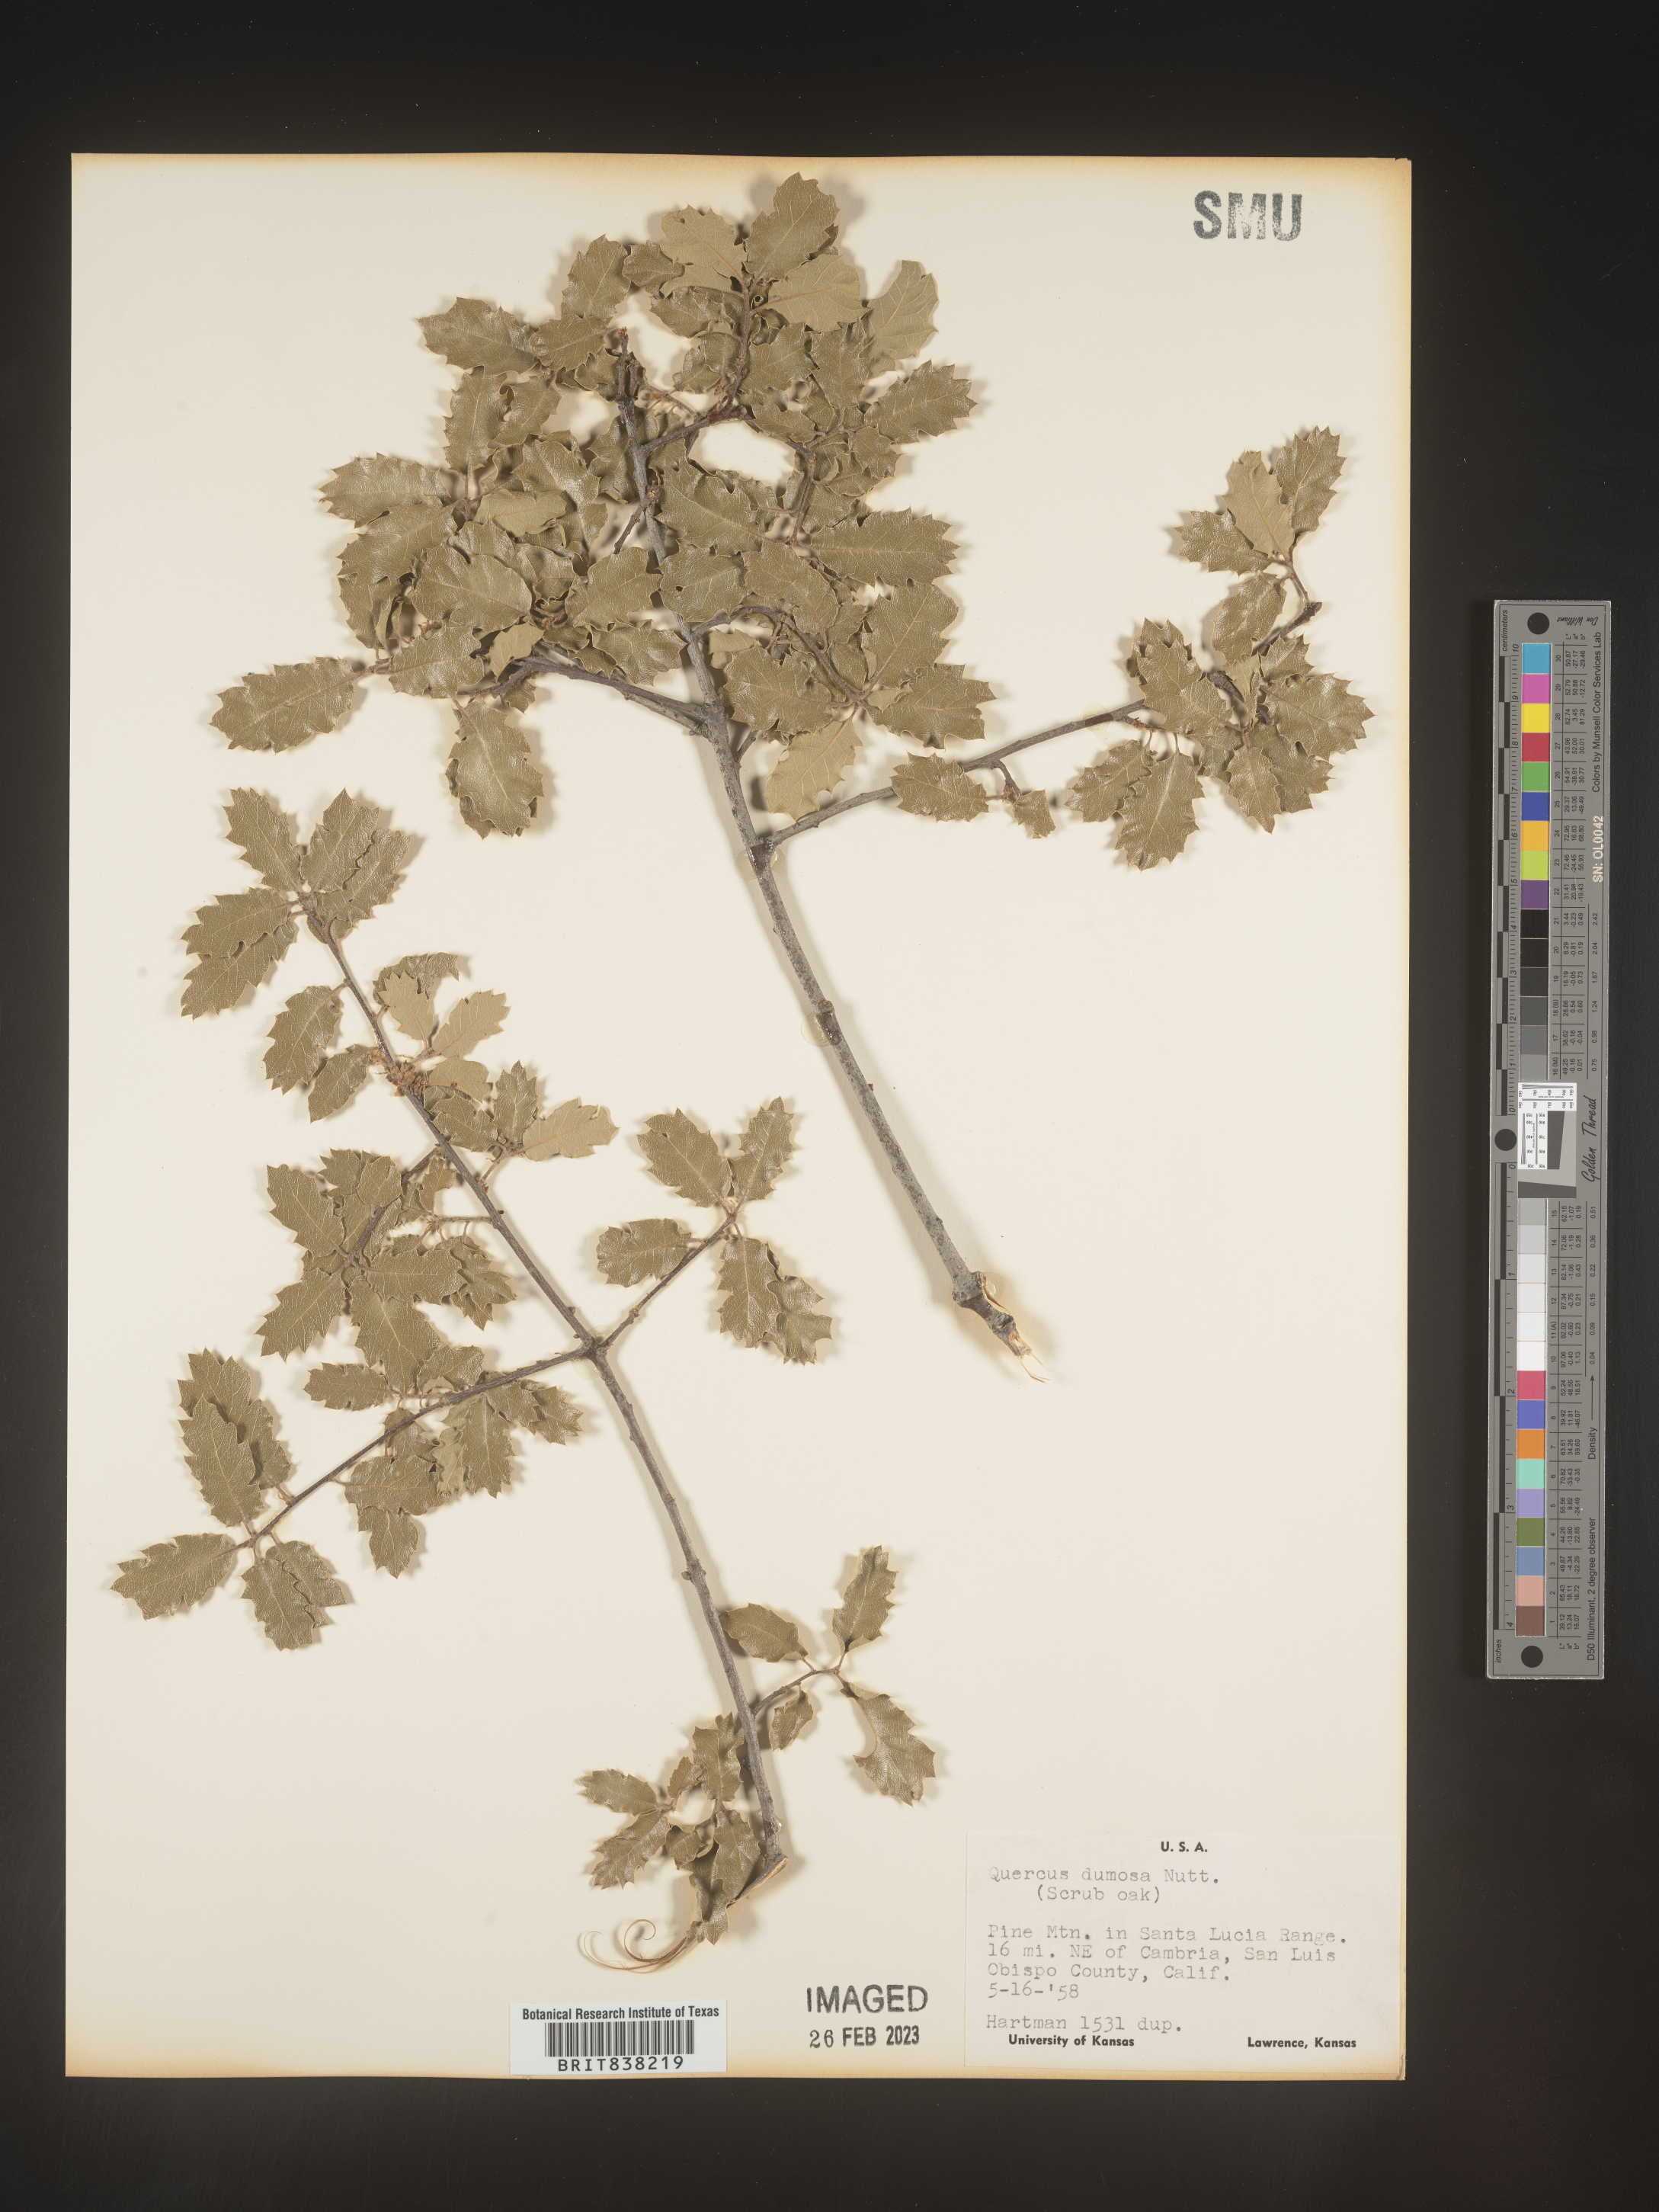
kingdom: Plantae
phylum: Tracheophyta
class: Magnoliopsida
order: Fagales
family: Fagaceae
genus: Quercus
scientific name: Quercus
